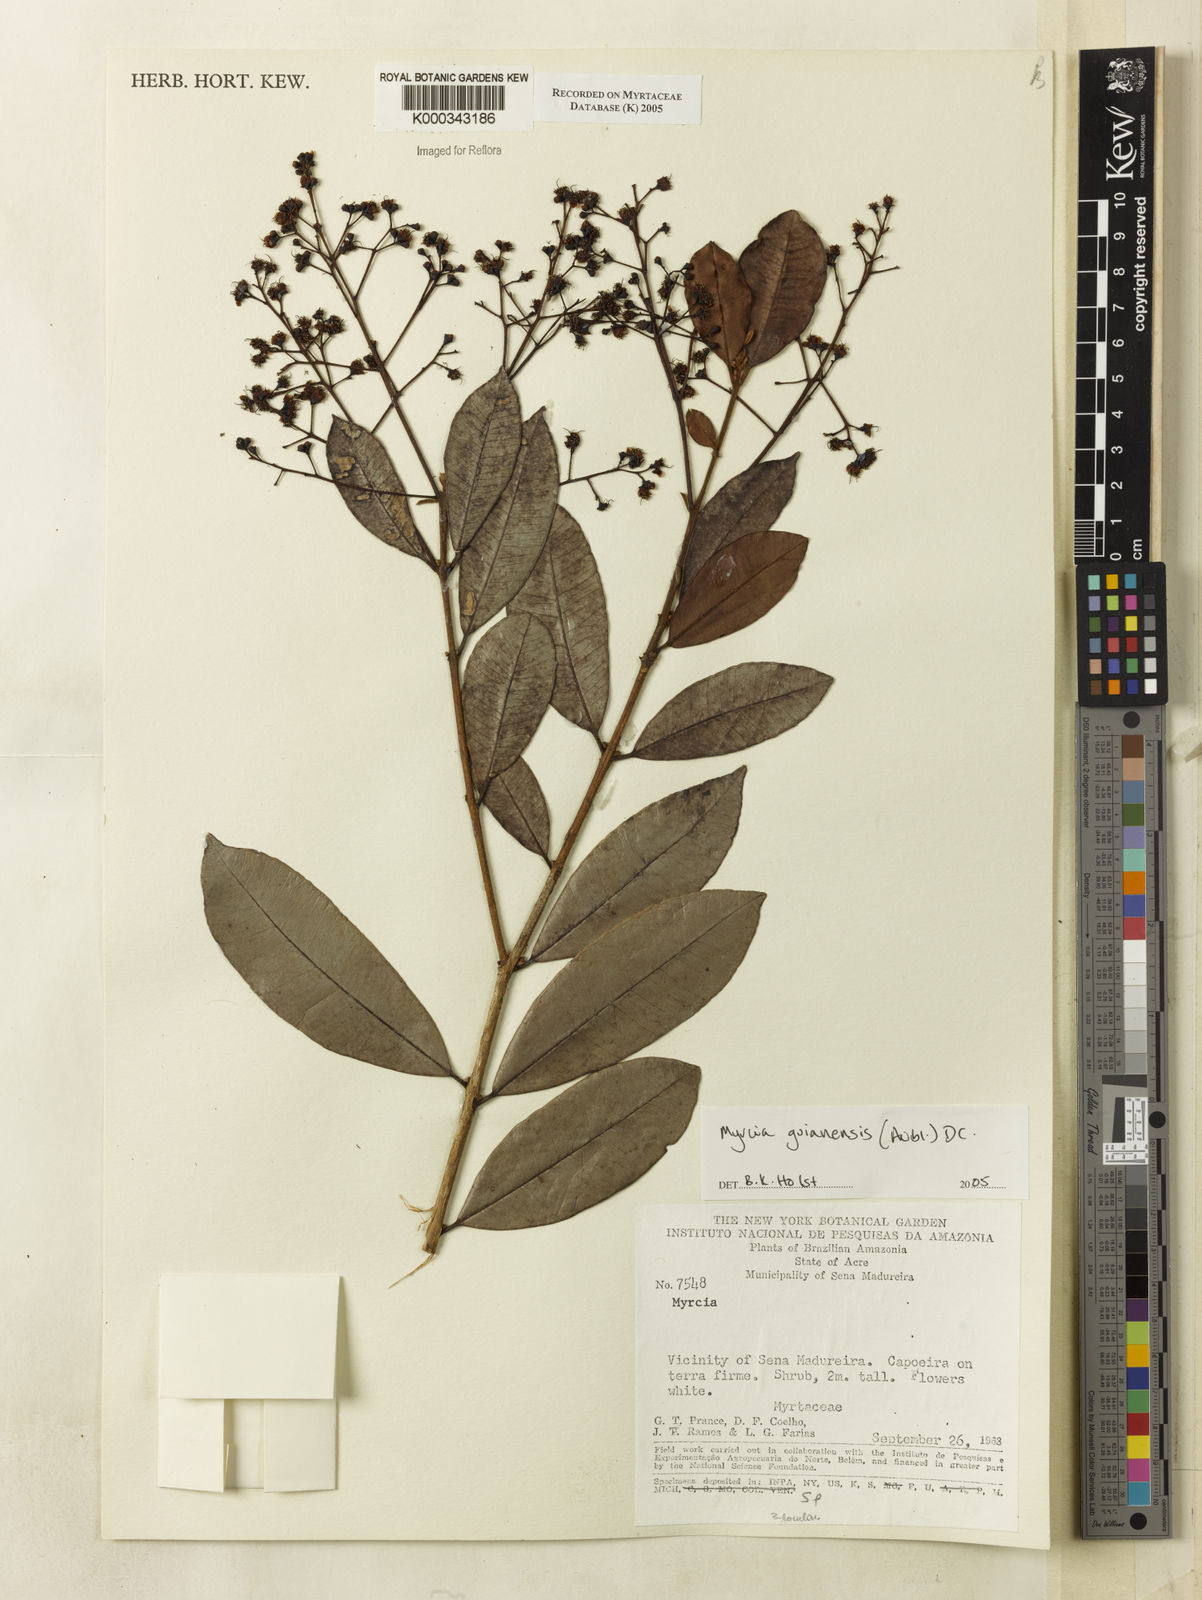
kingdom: Plantae
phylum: Tracheophyta
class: Magnoliopsida
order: Myrtales
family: Myrtaceae
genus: Myrcia
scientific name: Myrcia guianensis
